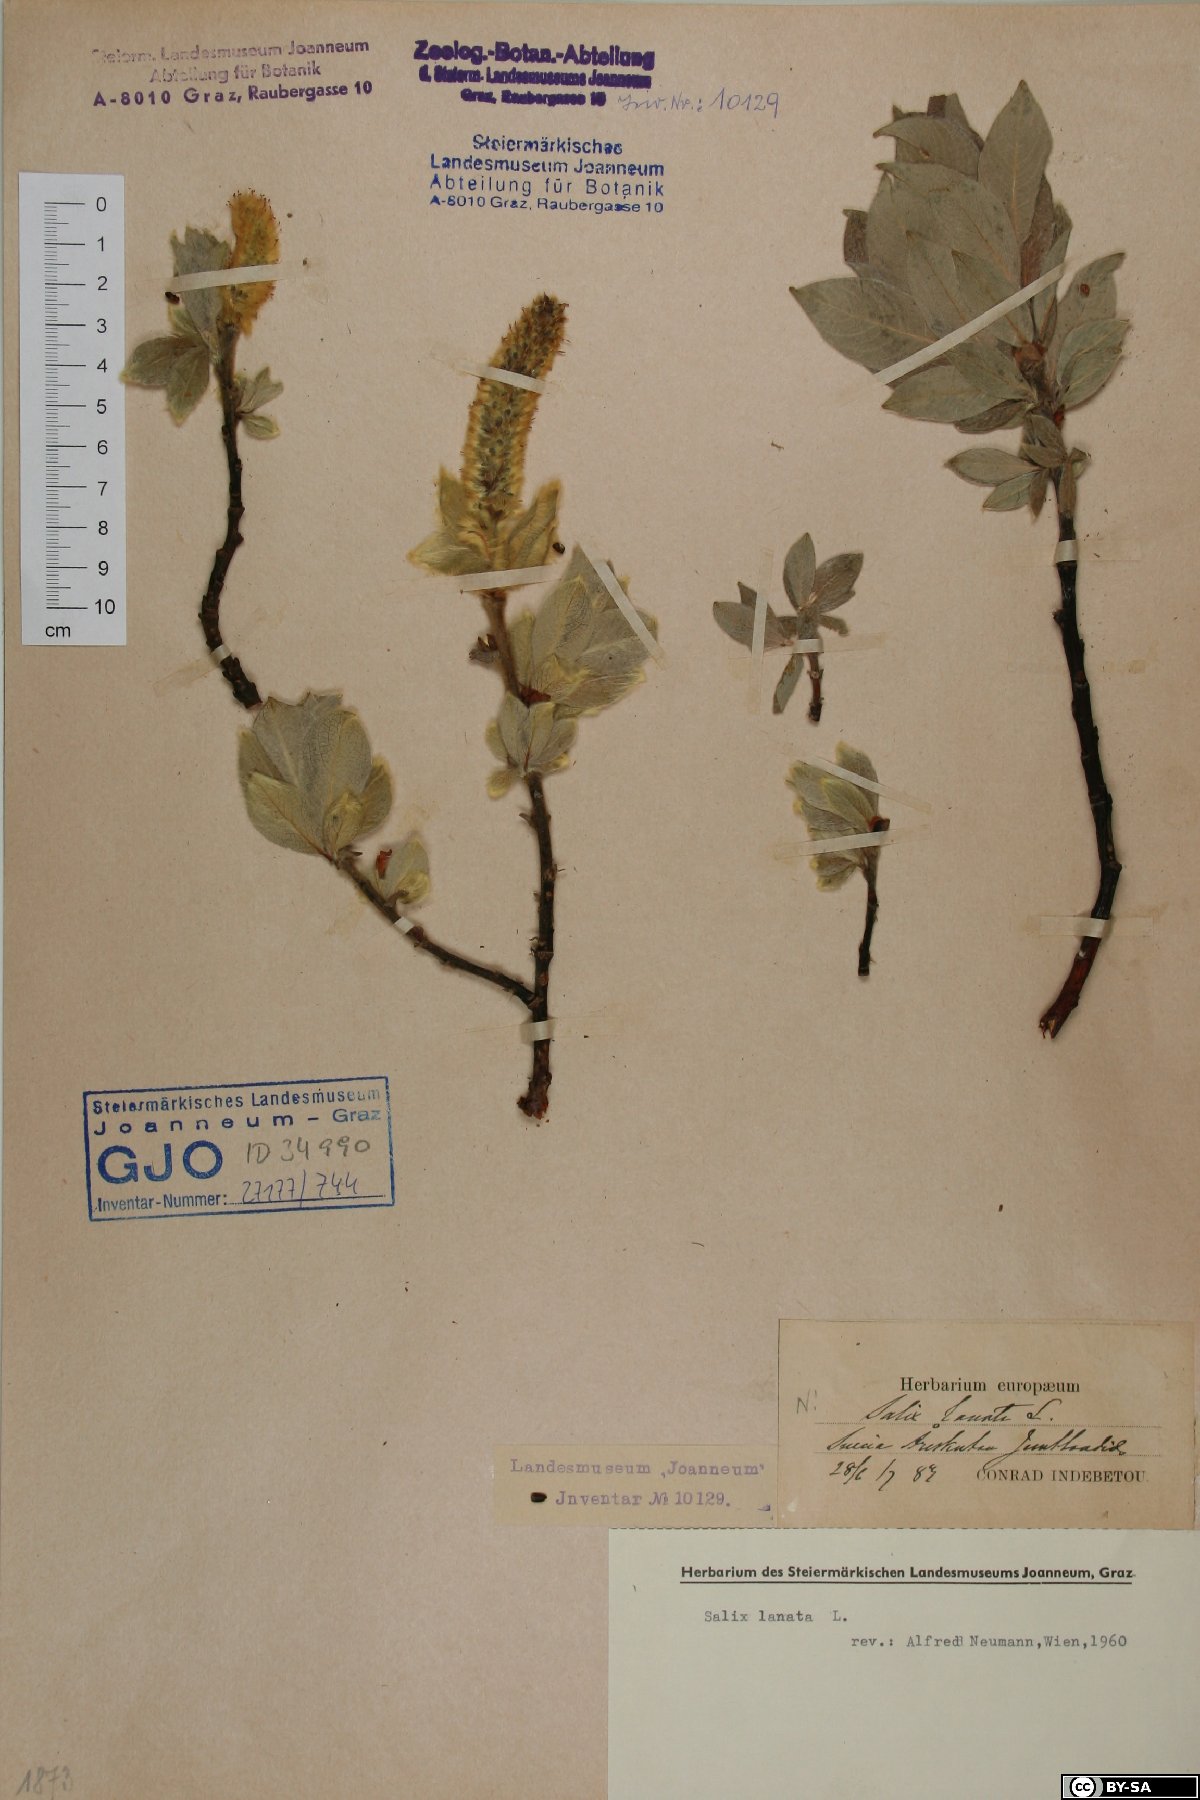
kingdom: Plantae
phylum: Tracheophyta
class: Magnoliopsida
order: Malpighiales
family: Salicaceae
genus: Salix
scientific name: Salix lanata
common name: Woolly willow
